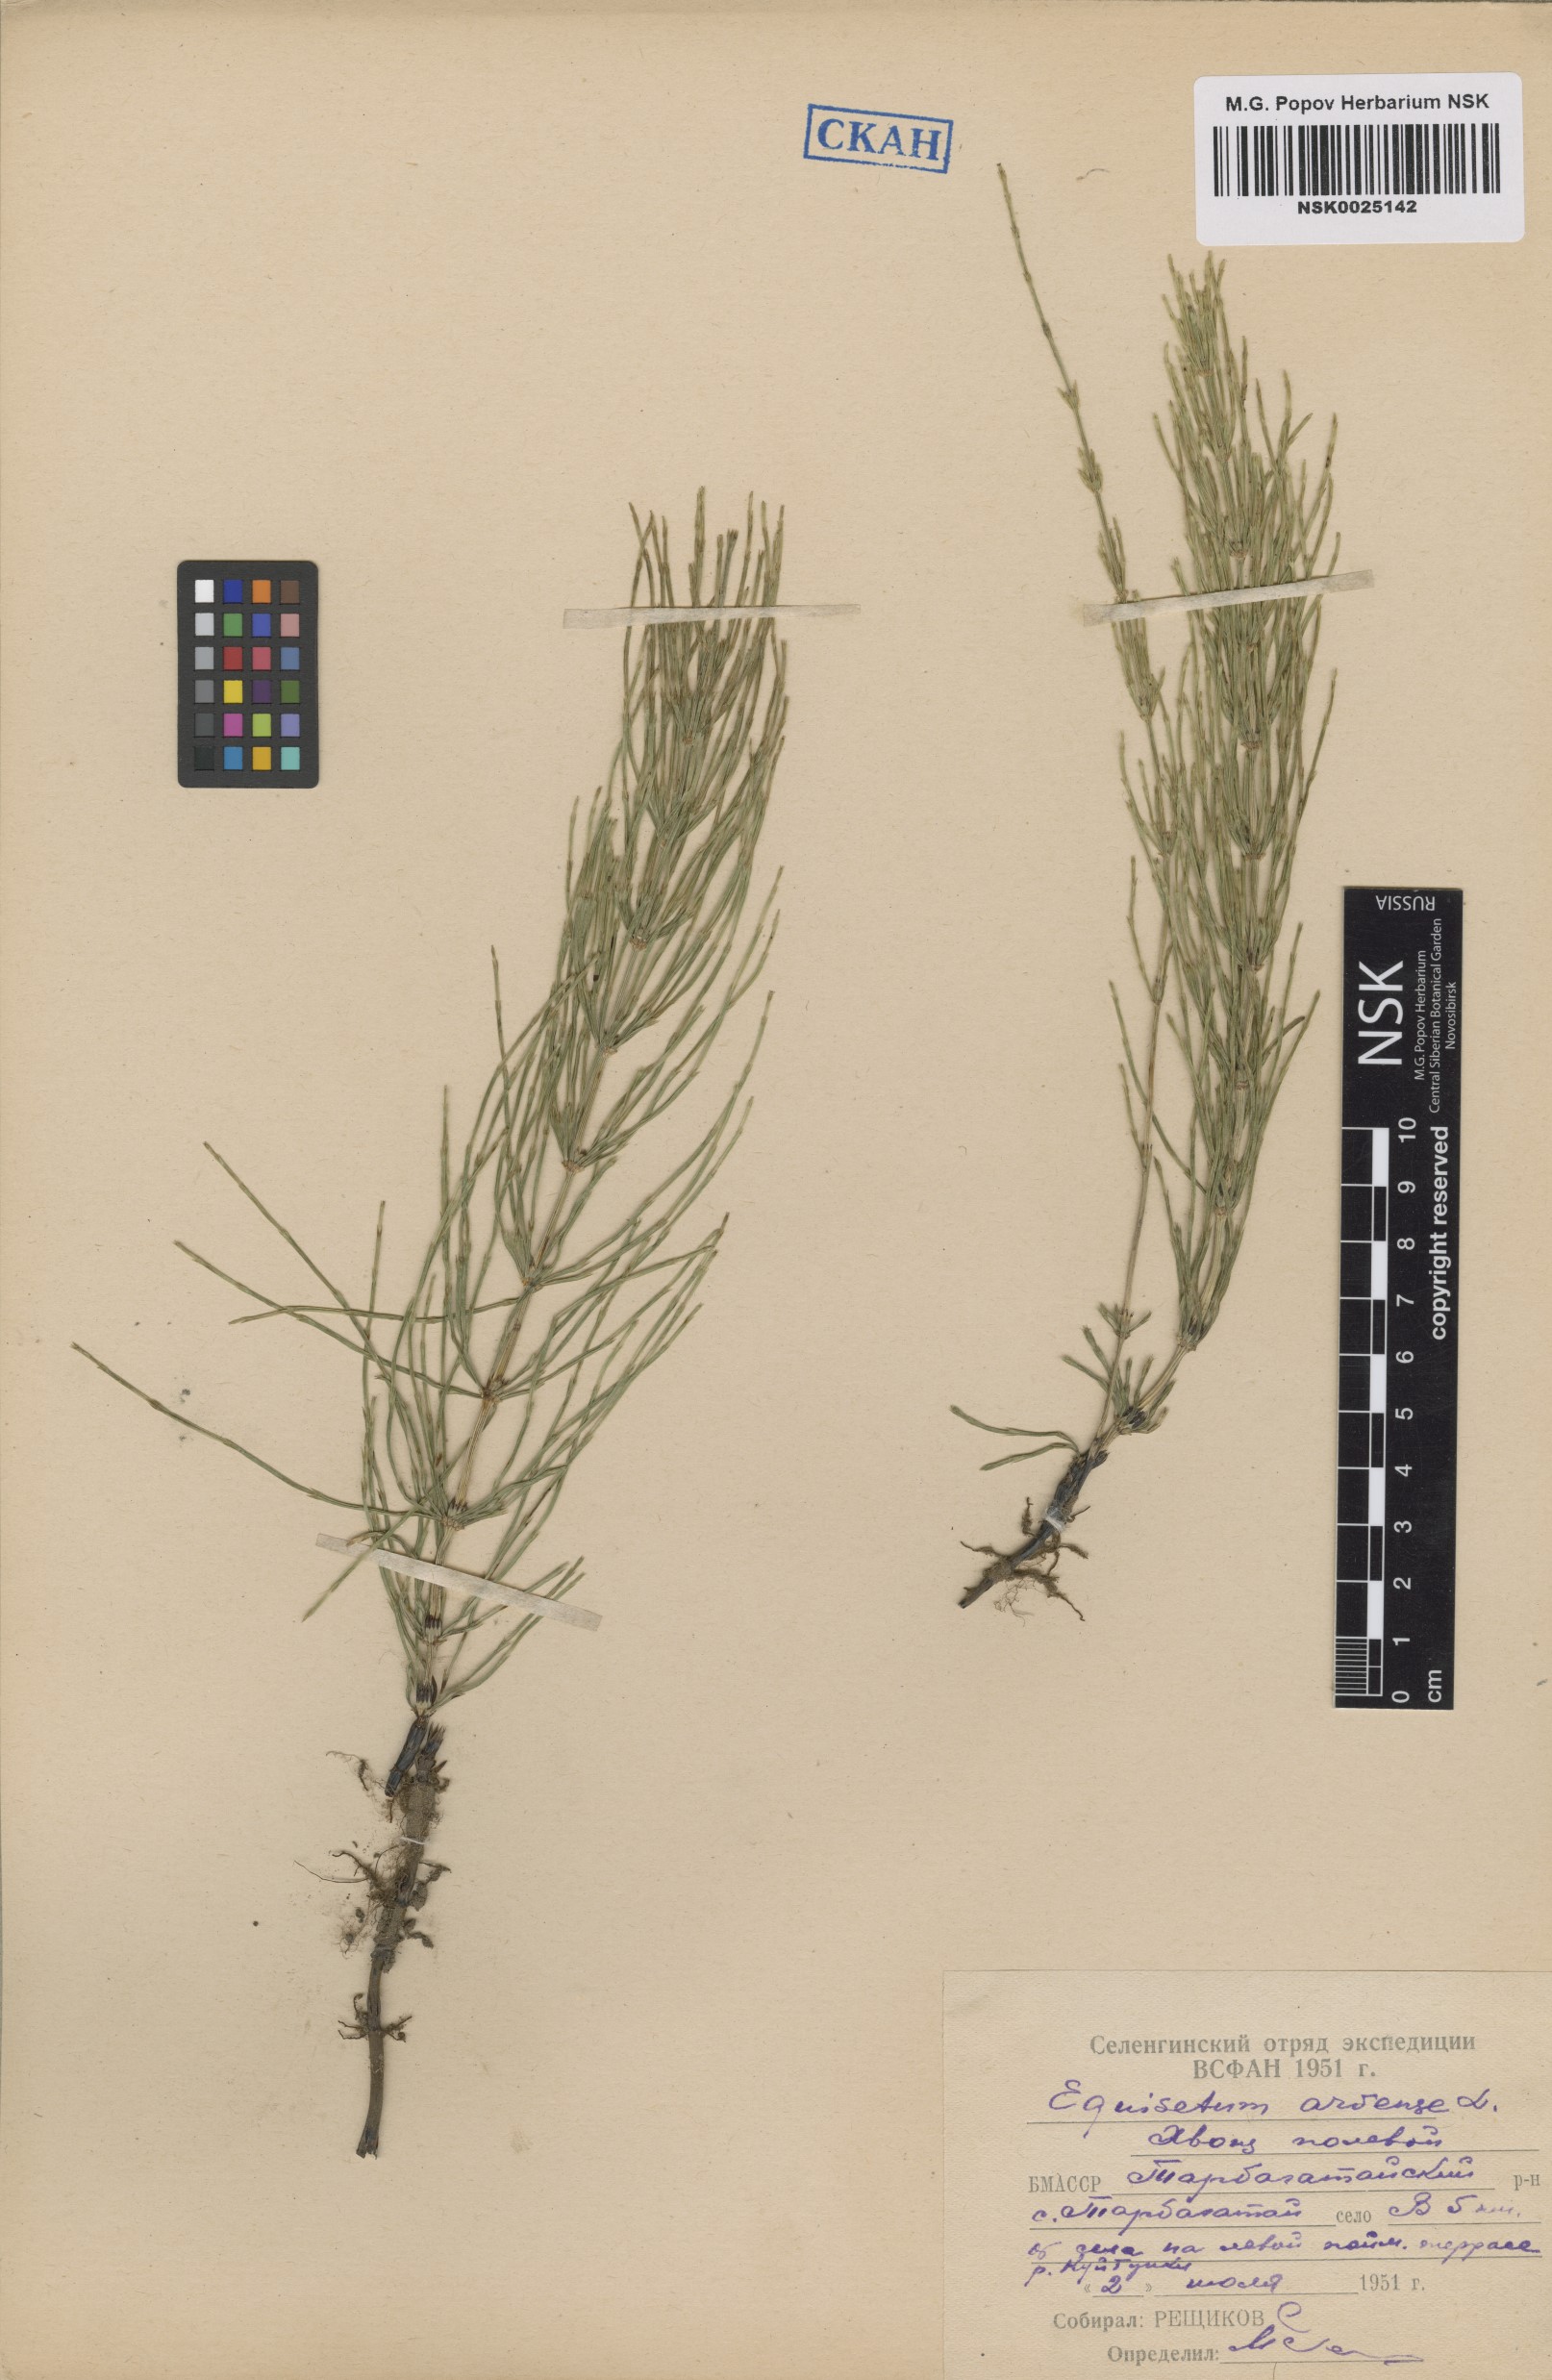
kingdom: Plantae
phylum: Tracheophyta
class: Polypodiopsida
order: Equisetales
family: Equisetaceae
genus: Equisetum
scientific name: Equisetum arvense
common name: Field horsetail
